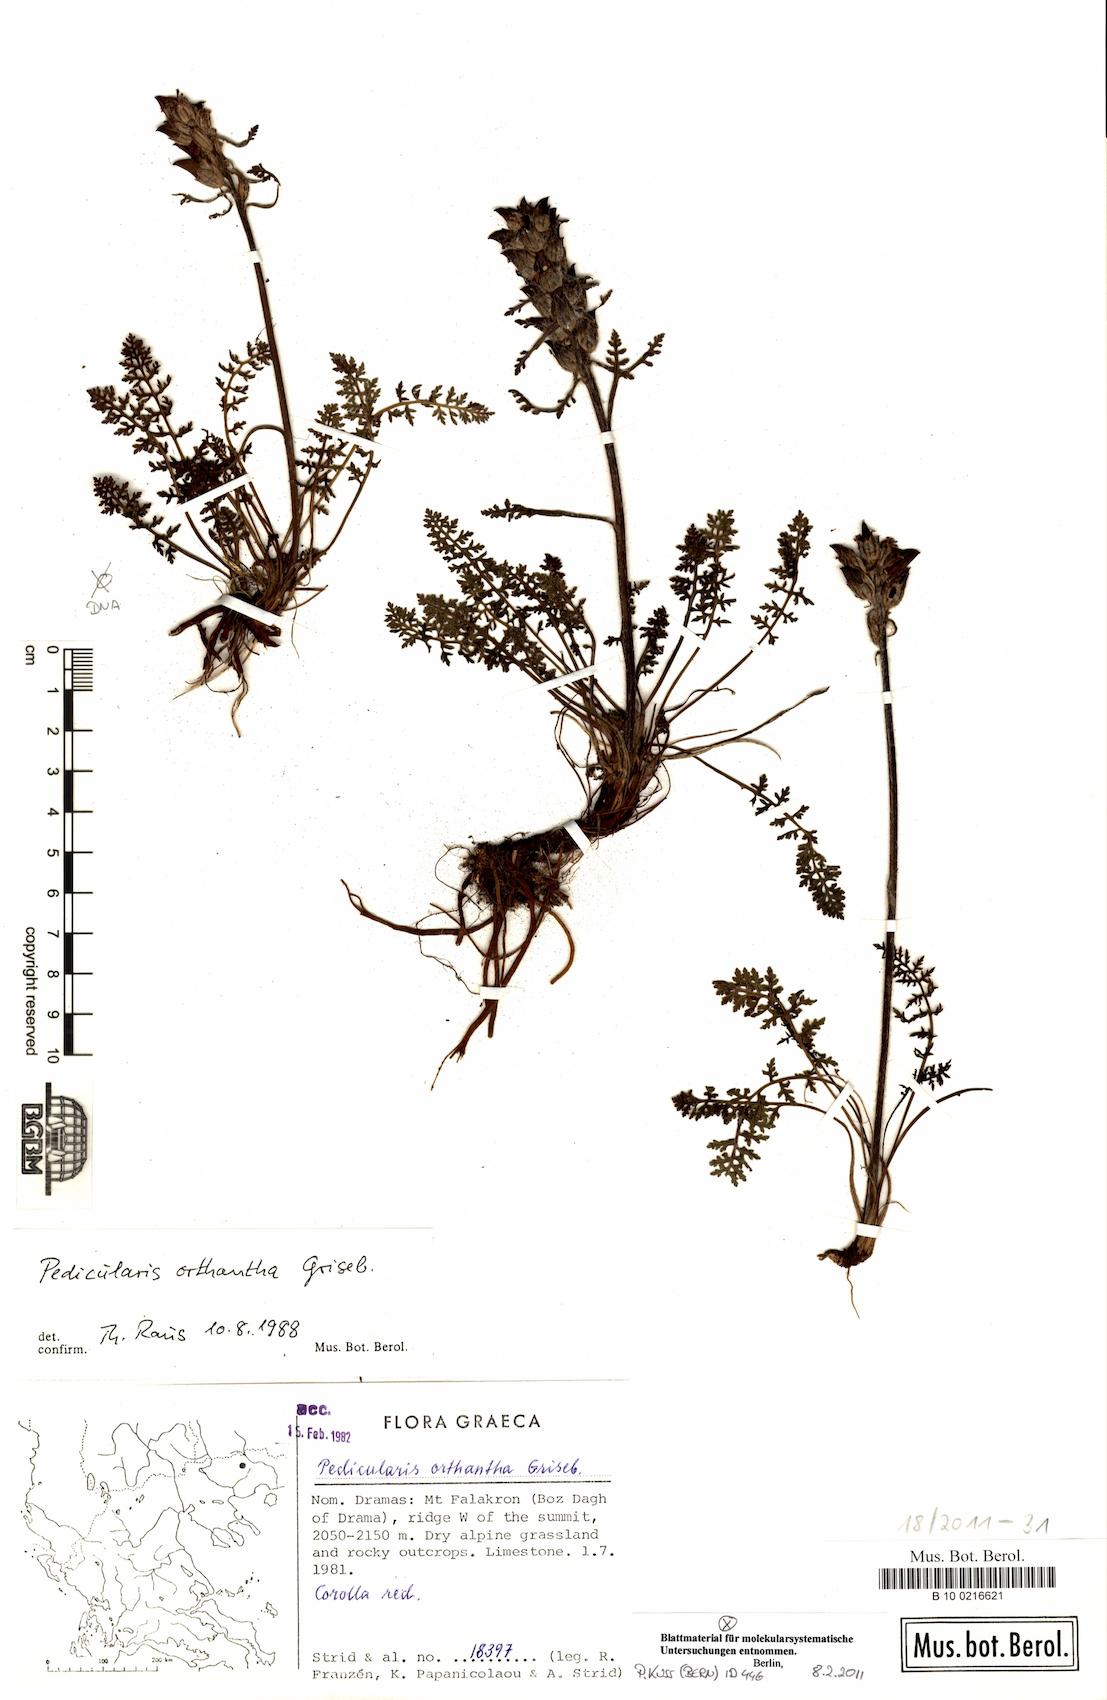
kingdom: Plantae
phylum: Tracheophyta
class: Magnoliopsida
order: Lamiales
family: Orobanchaceae
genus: Pedicularis
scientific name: Pedicularis
